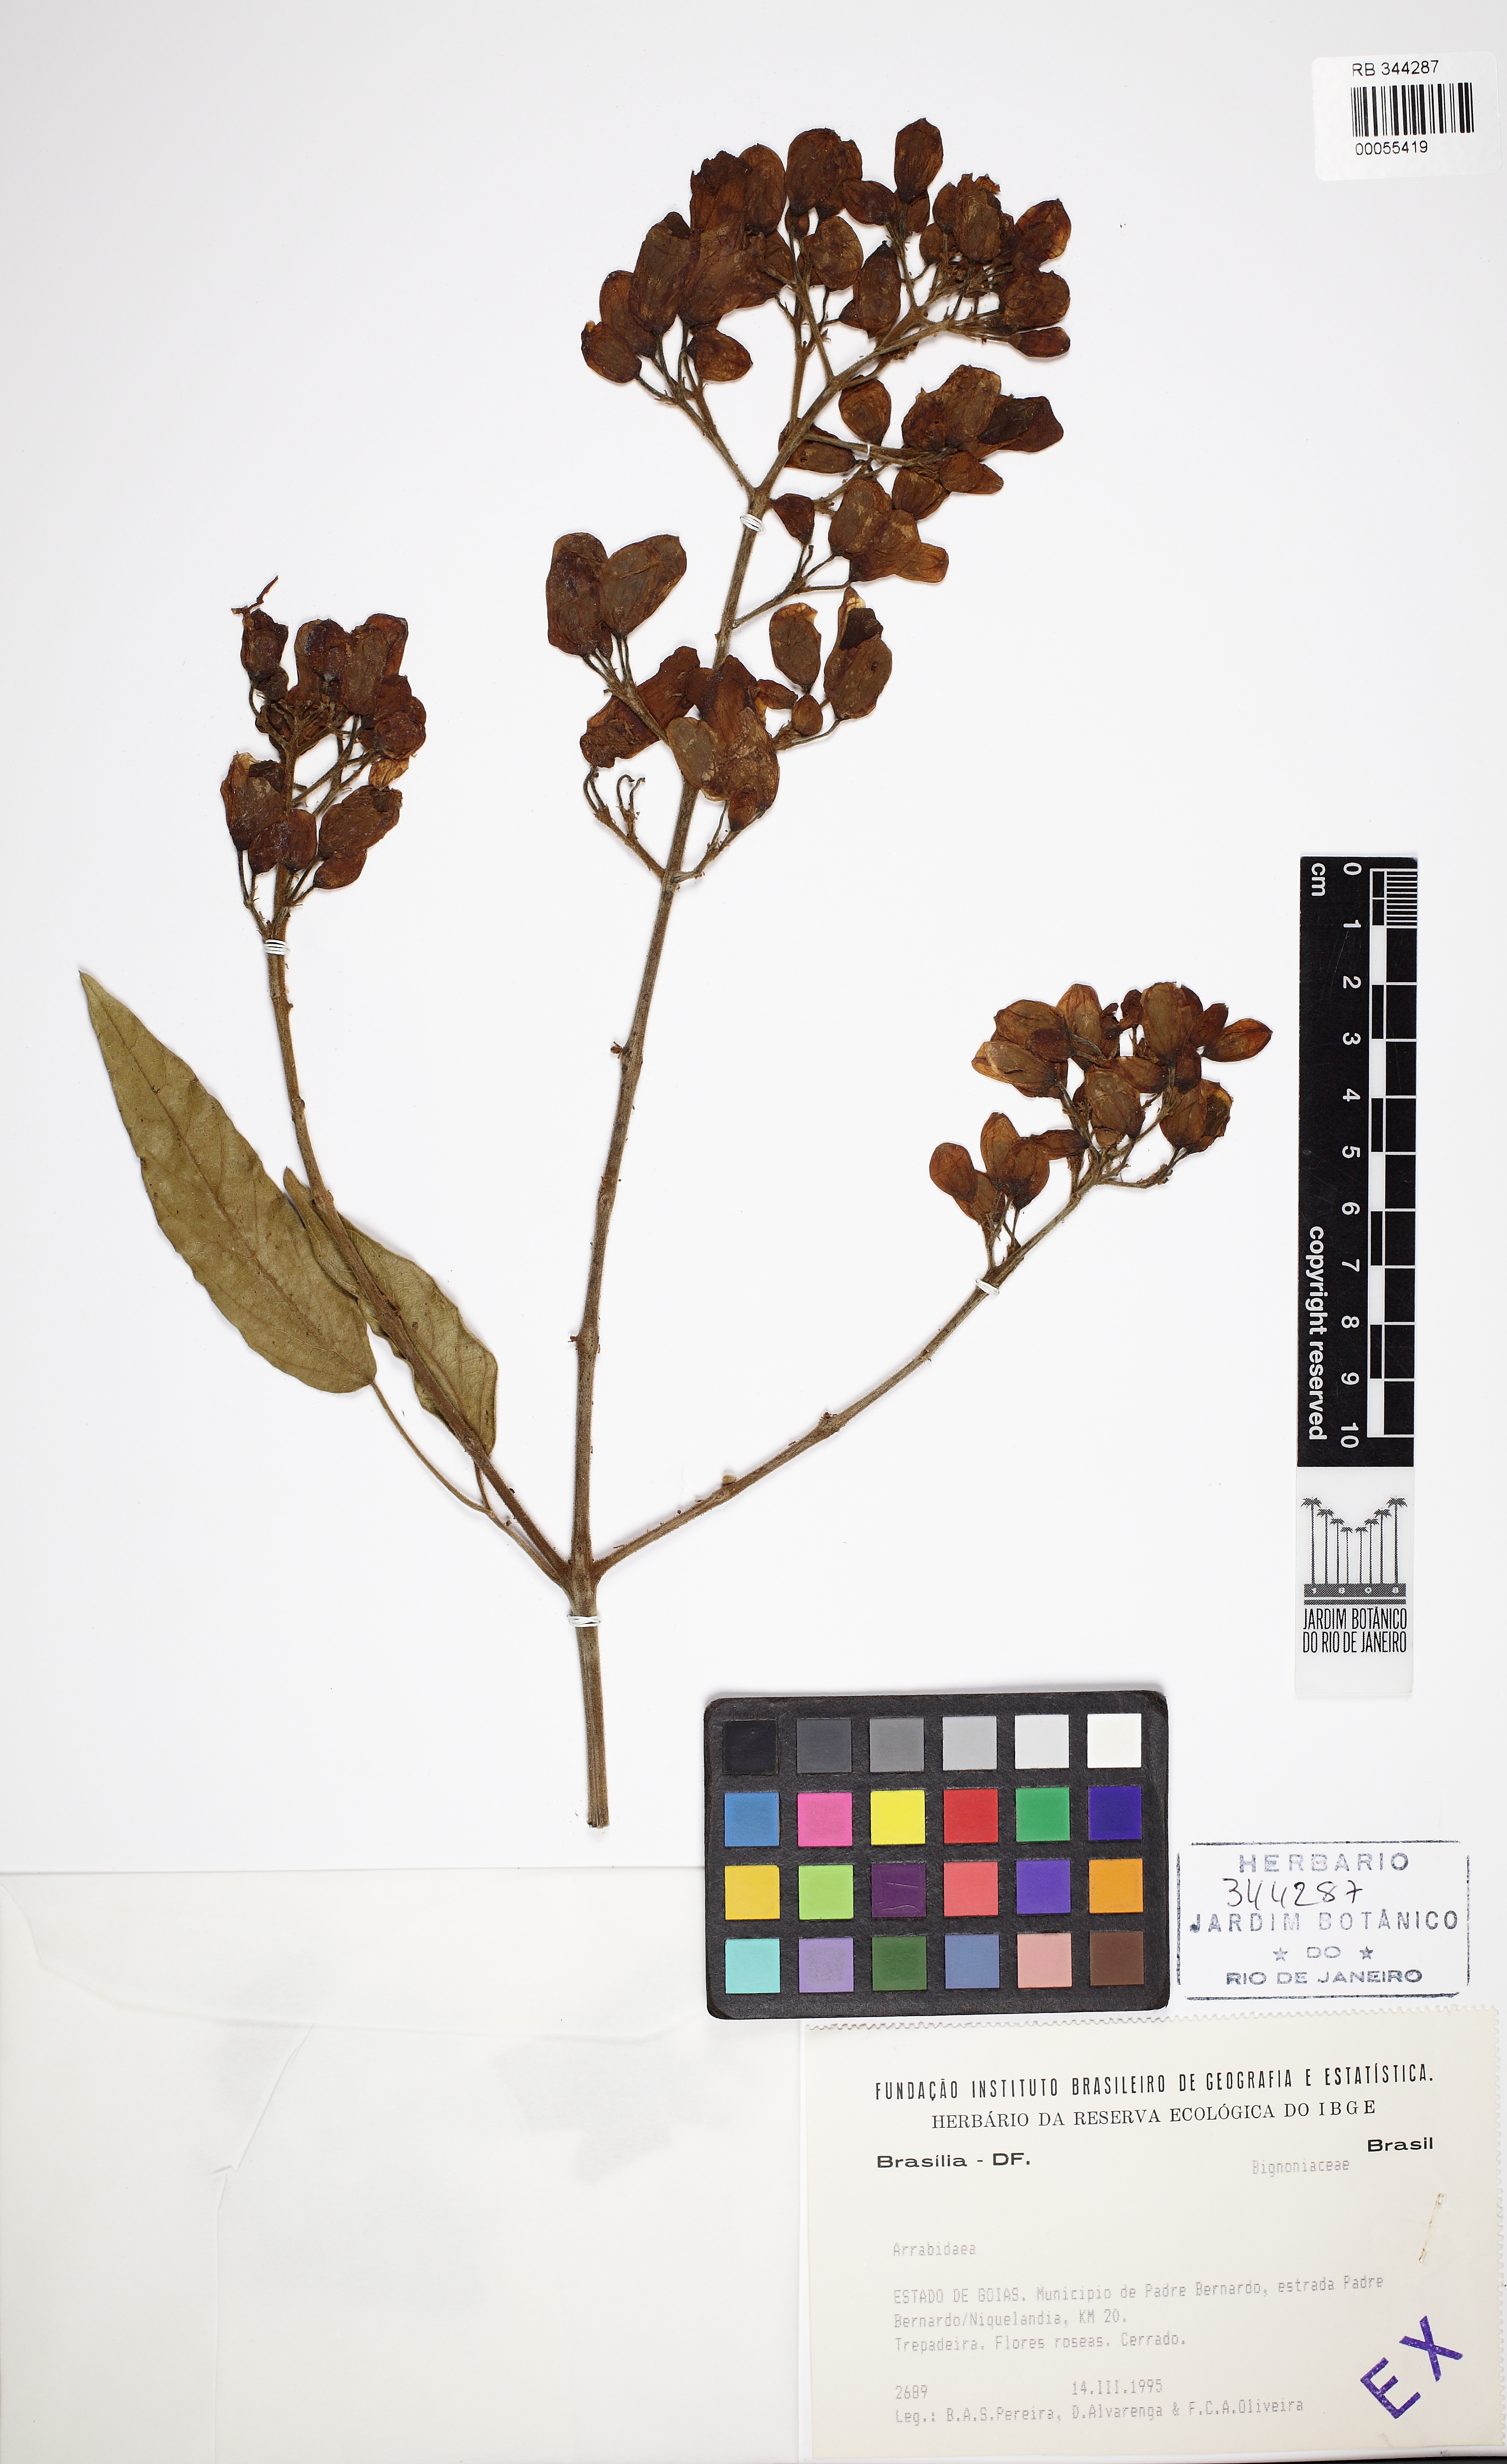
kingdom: Plantae
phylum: Tracheophyta
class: Magnoliopsida
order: Lamiales
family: Bignoniaceae
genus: Cuspidaria
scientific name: Cuspidaria sceptrum
